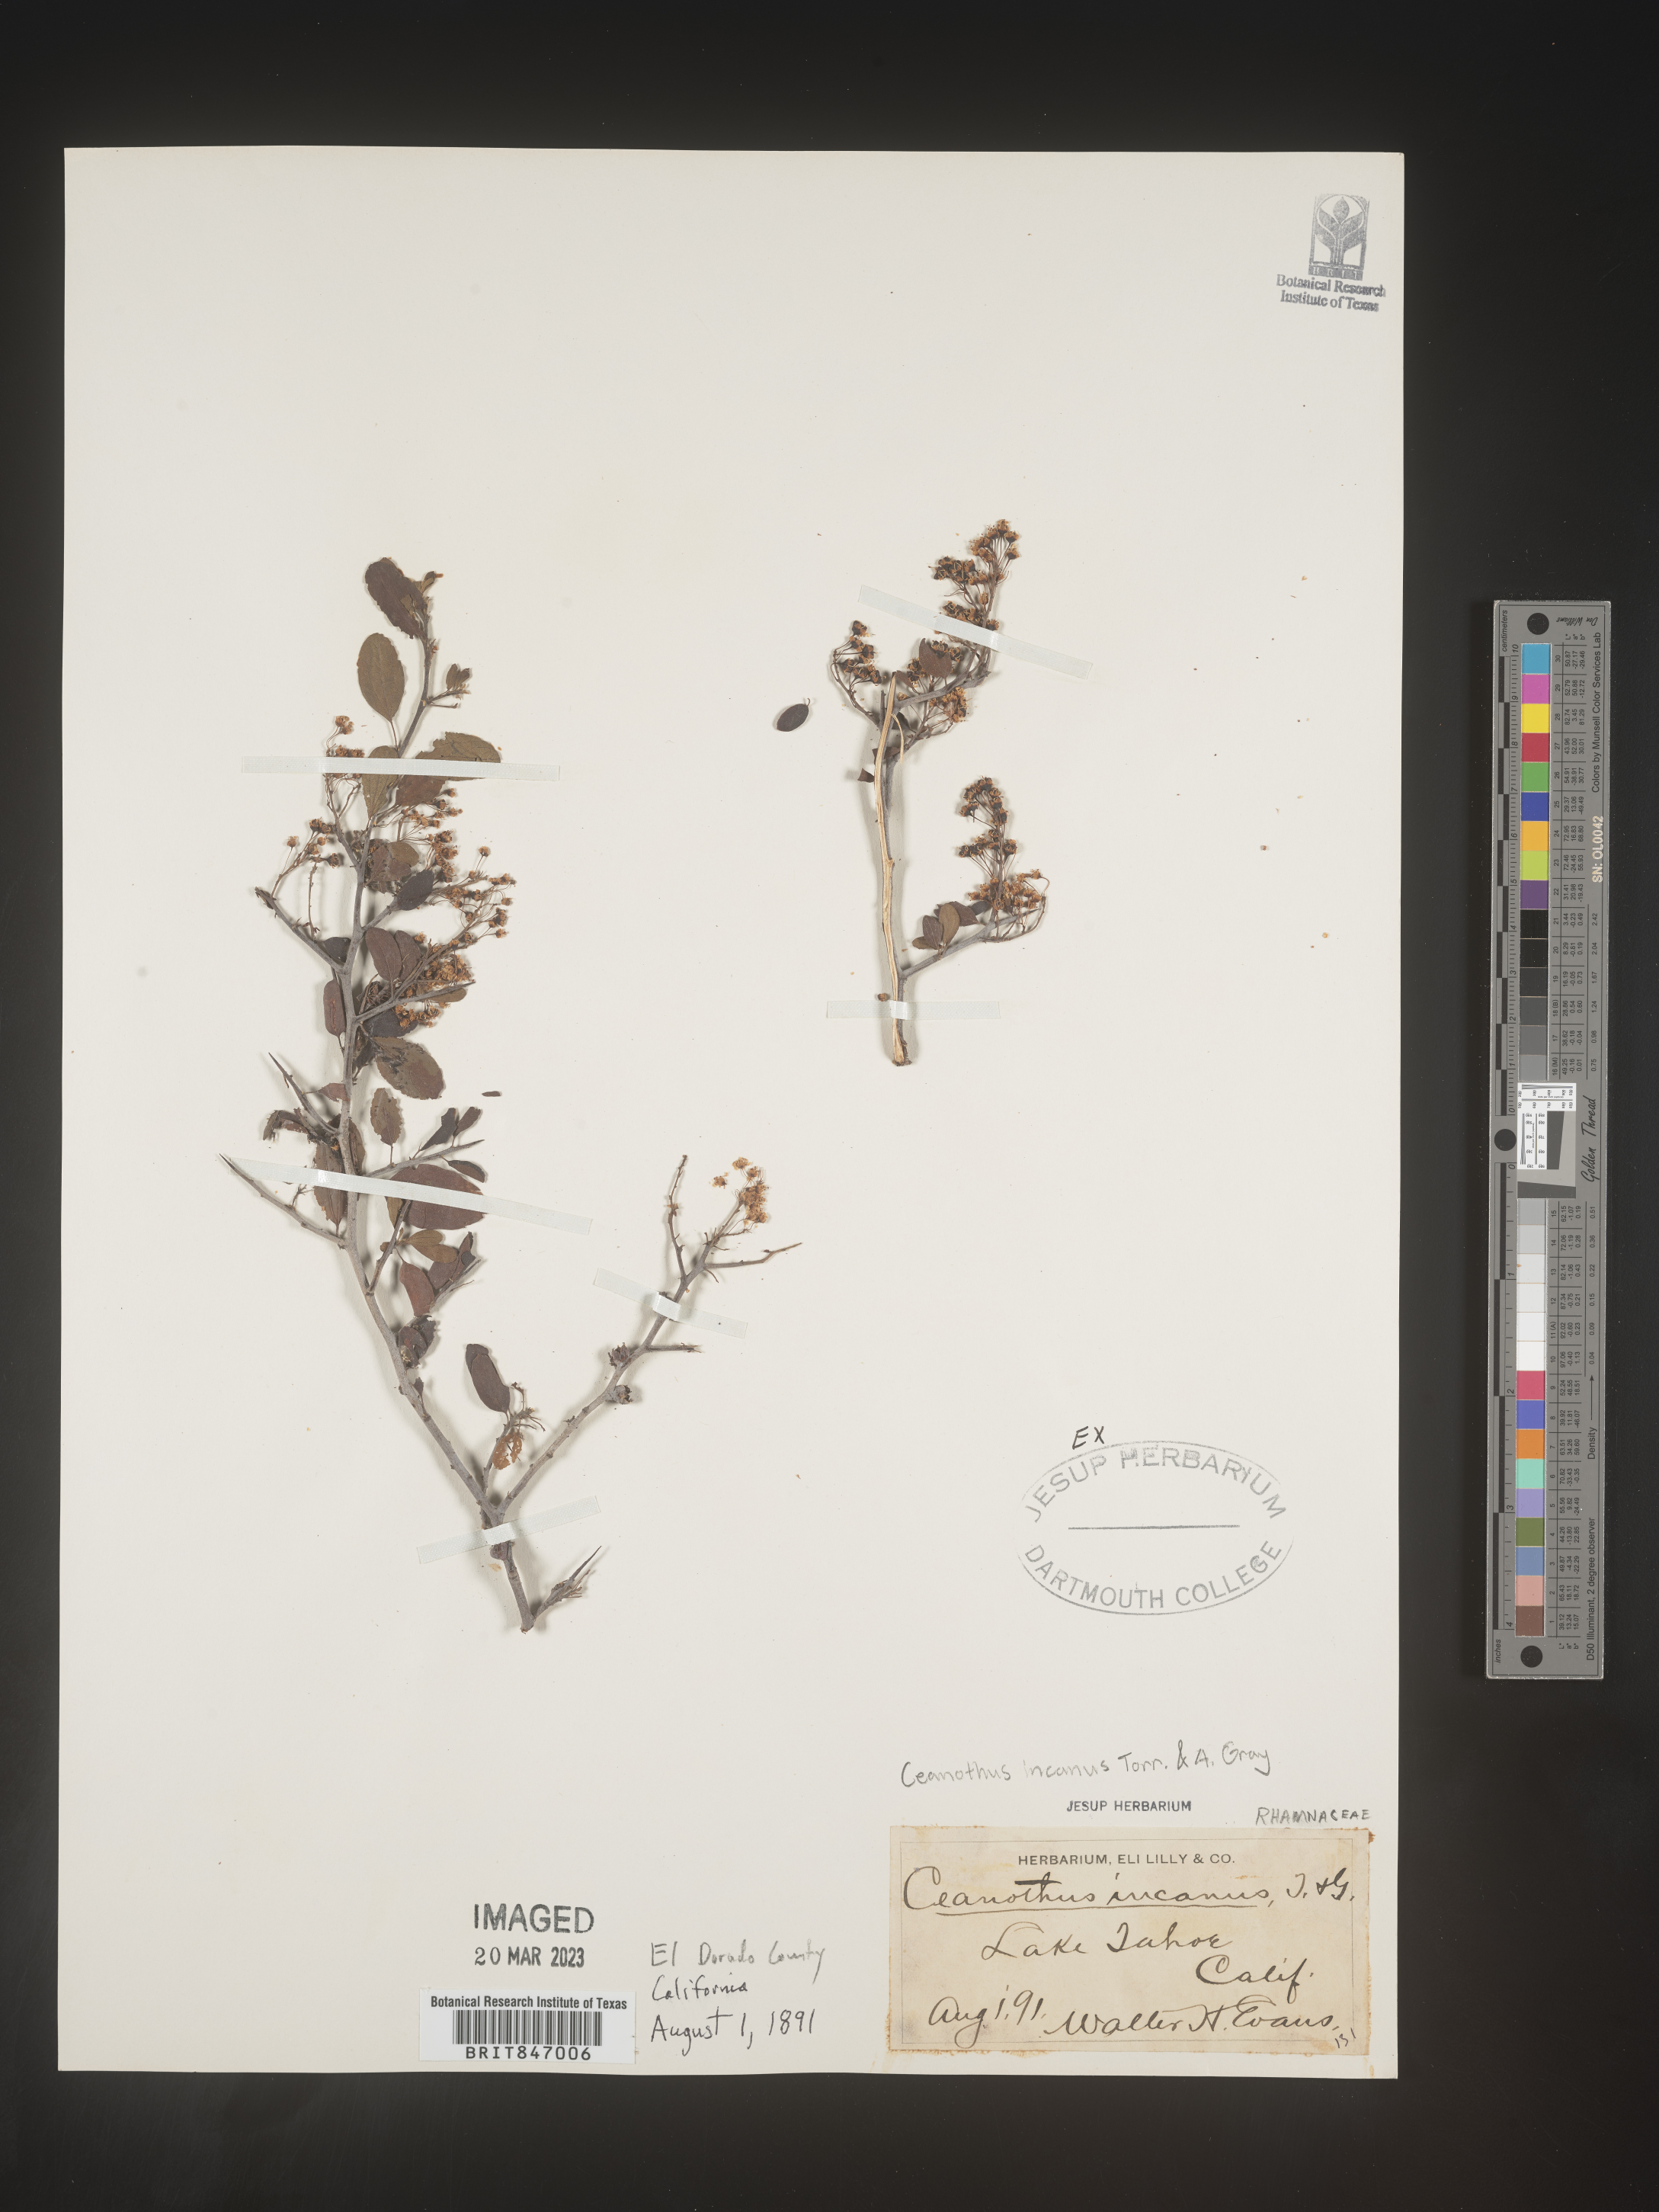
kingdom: Plantae
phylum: Tracheophyta
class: Magnoliopsida
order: Rosales
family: Rhamnaceae
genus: Ceanothus
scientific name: Ceanothus
